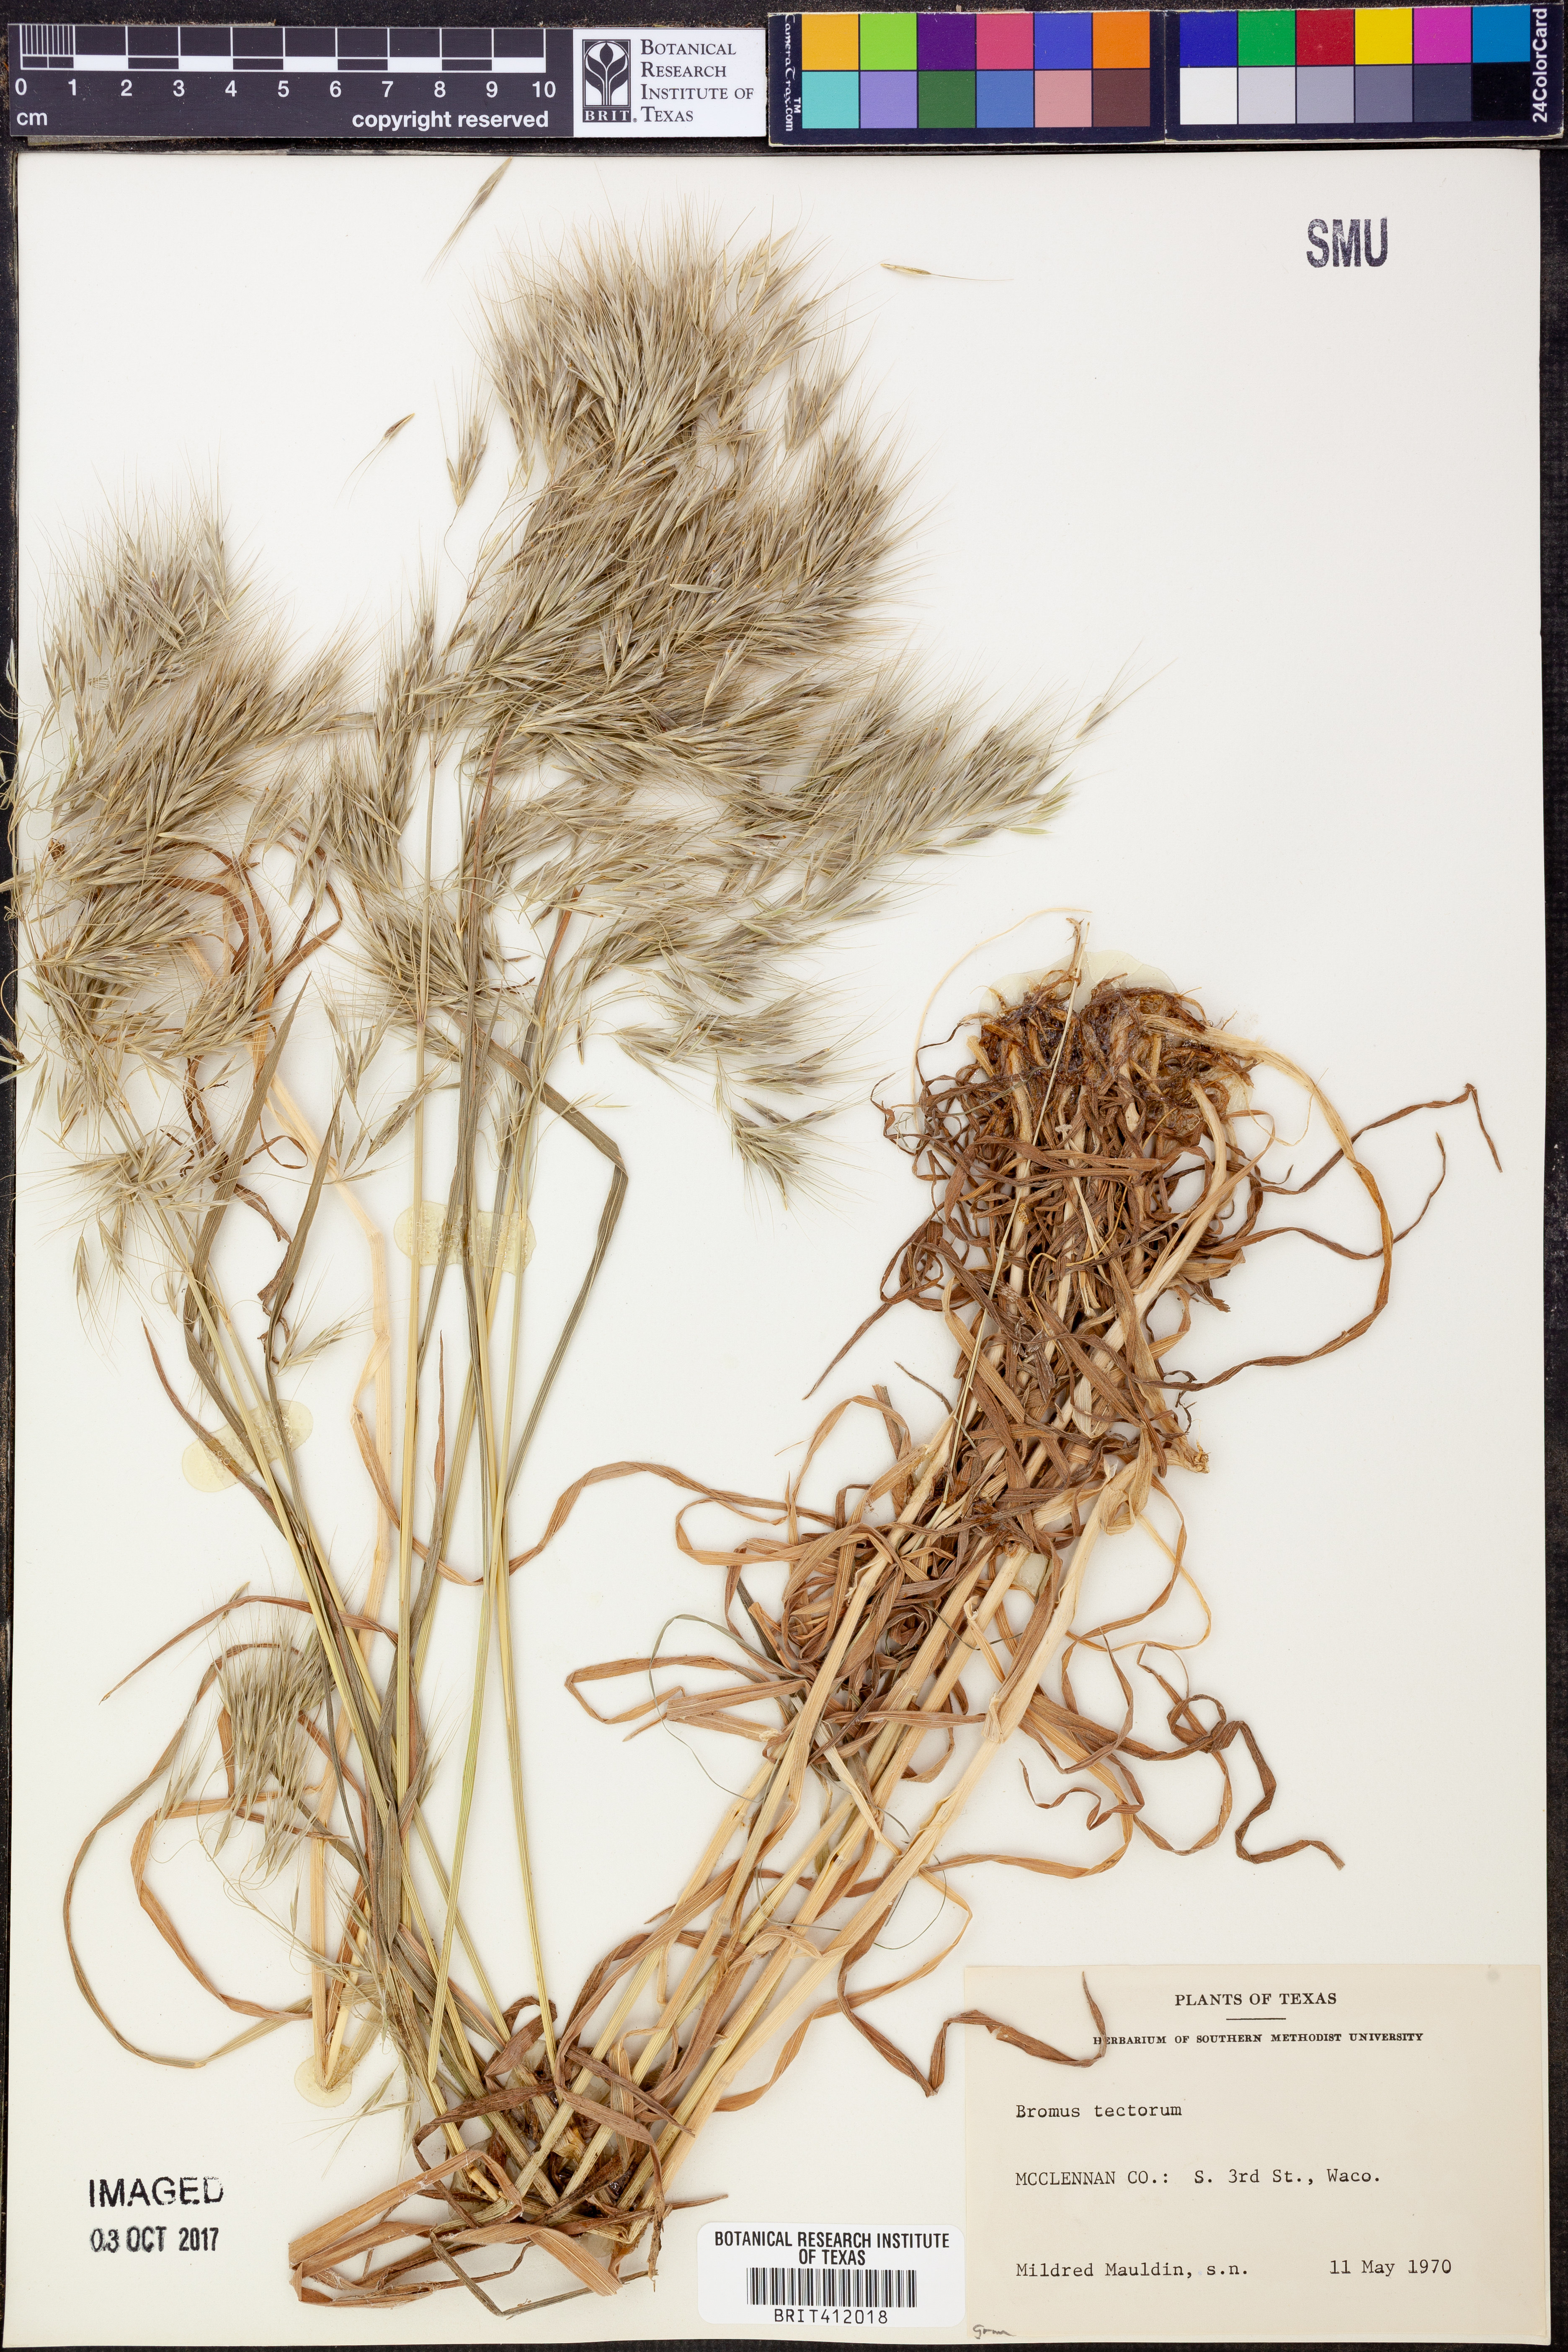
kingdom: Plantae
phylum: Tracheophyta
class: Liliopsida
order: Poales
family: Poaceae
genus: Bromus
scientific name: Bromus tectorum
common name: Cheatgrass
